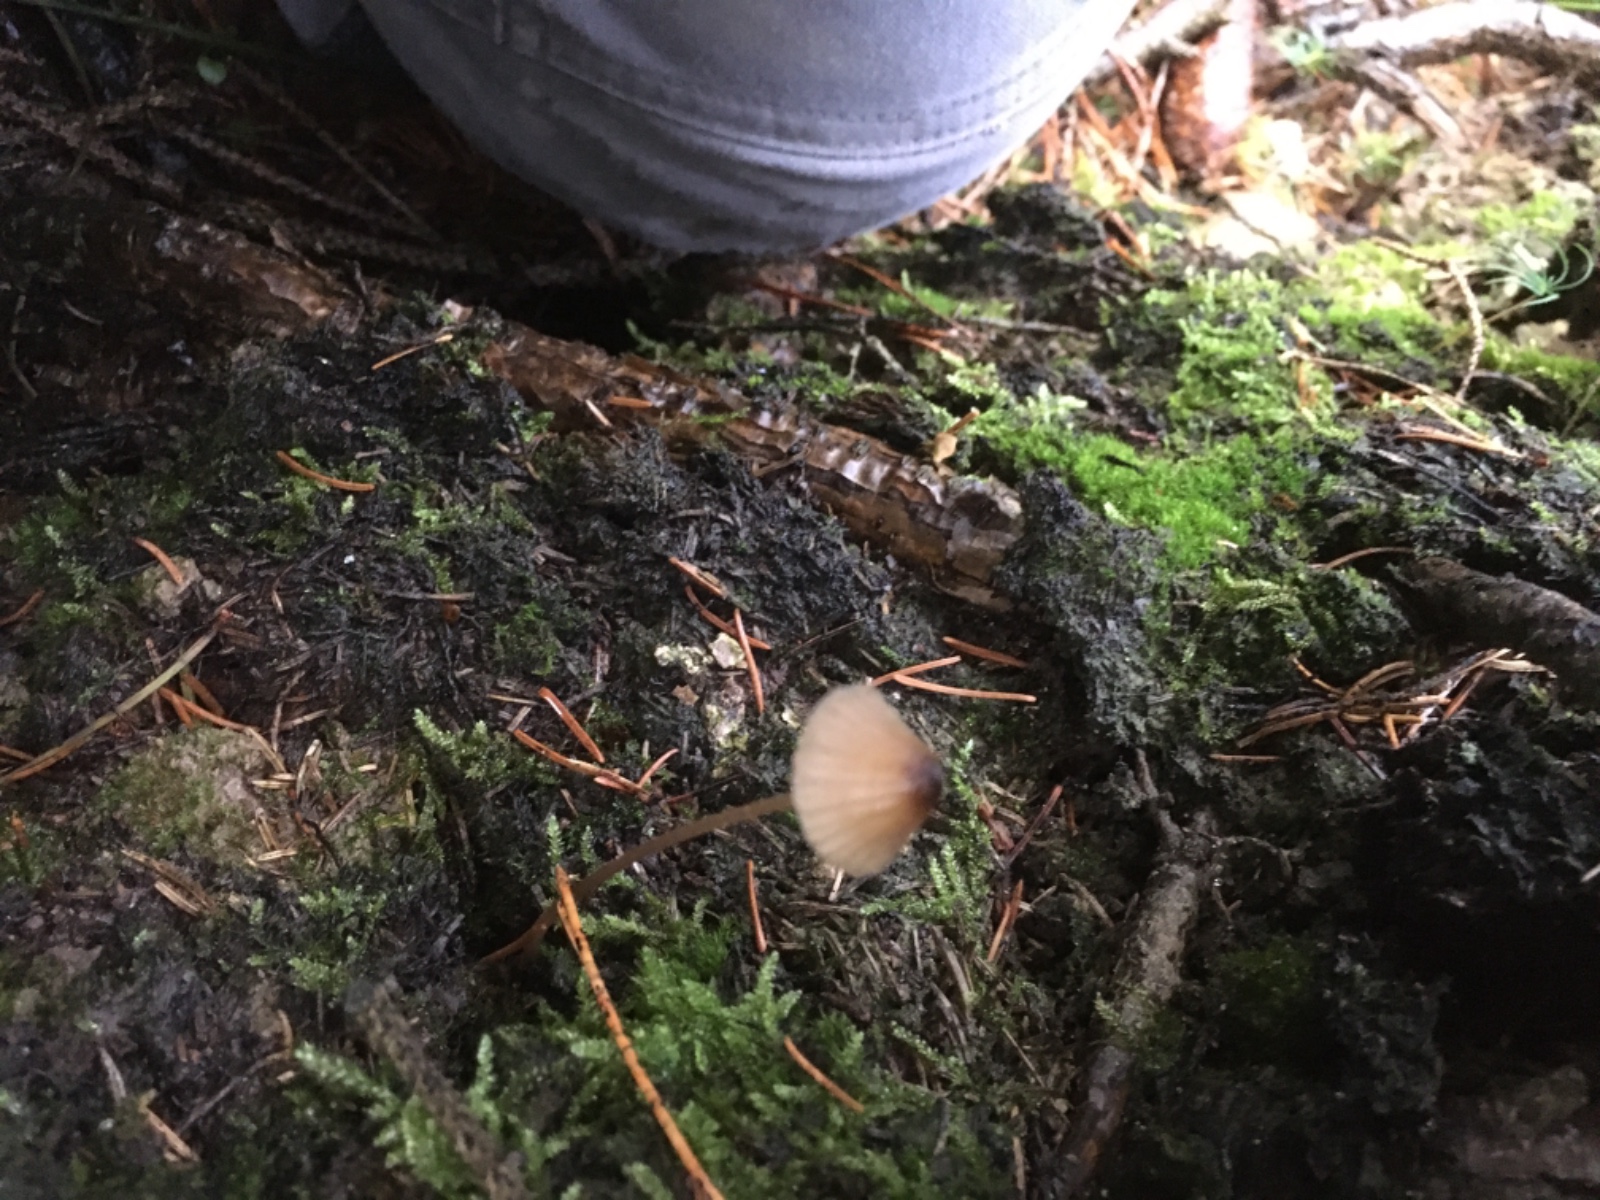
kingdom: Fungi
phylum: Basidiomycota
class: Agaricomycetes
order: Agaricales
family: Mycenaceae
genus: Mycena
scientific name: Mycena
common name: huesvamp
